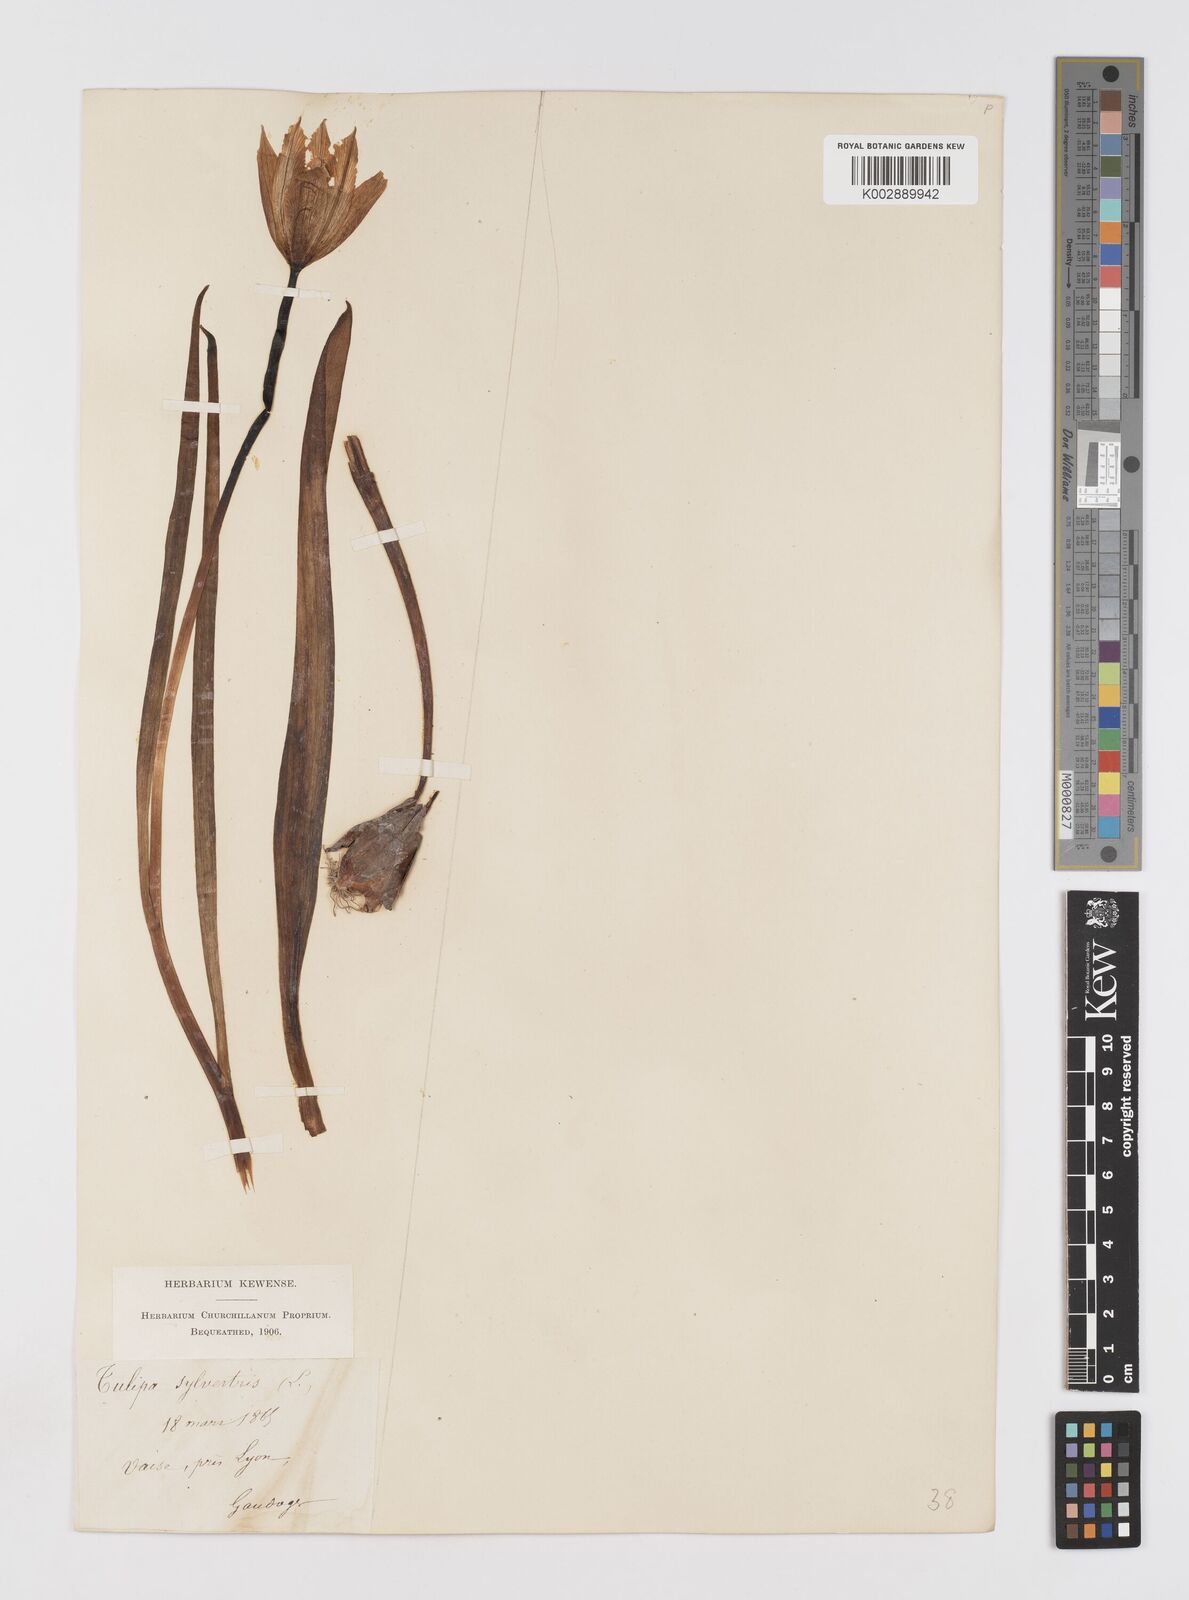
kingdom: Plantae
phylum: Tracheophyta
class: Liliopsida
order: Liliales
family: Liliaceae
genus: Tulipa
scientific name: Tulipa sylvestris
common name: Wild tulip
